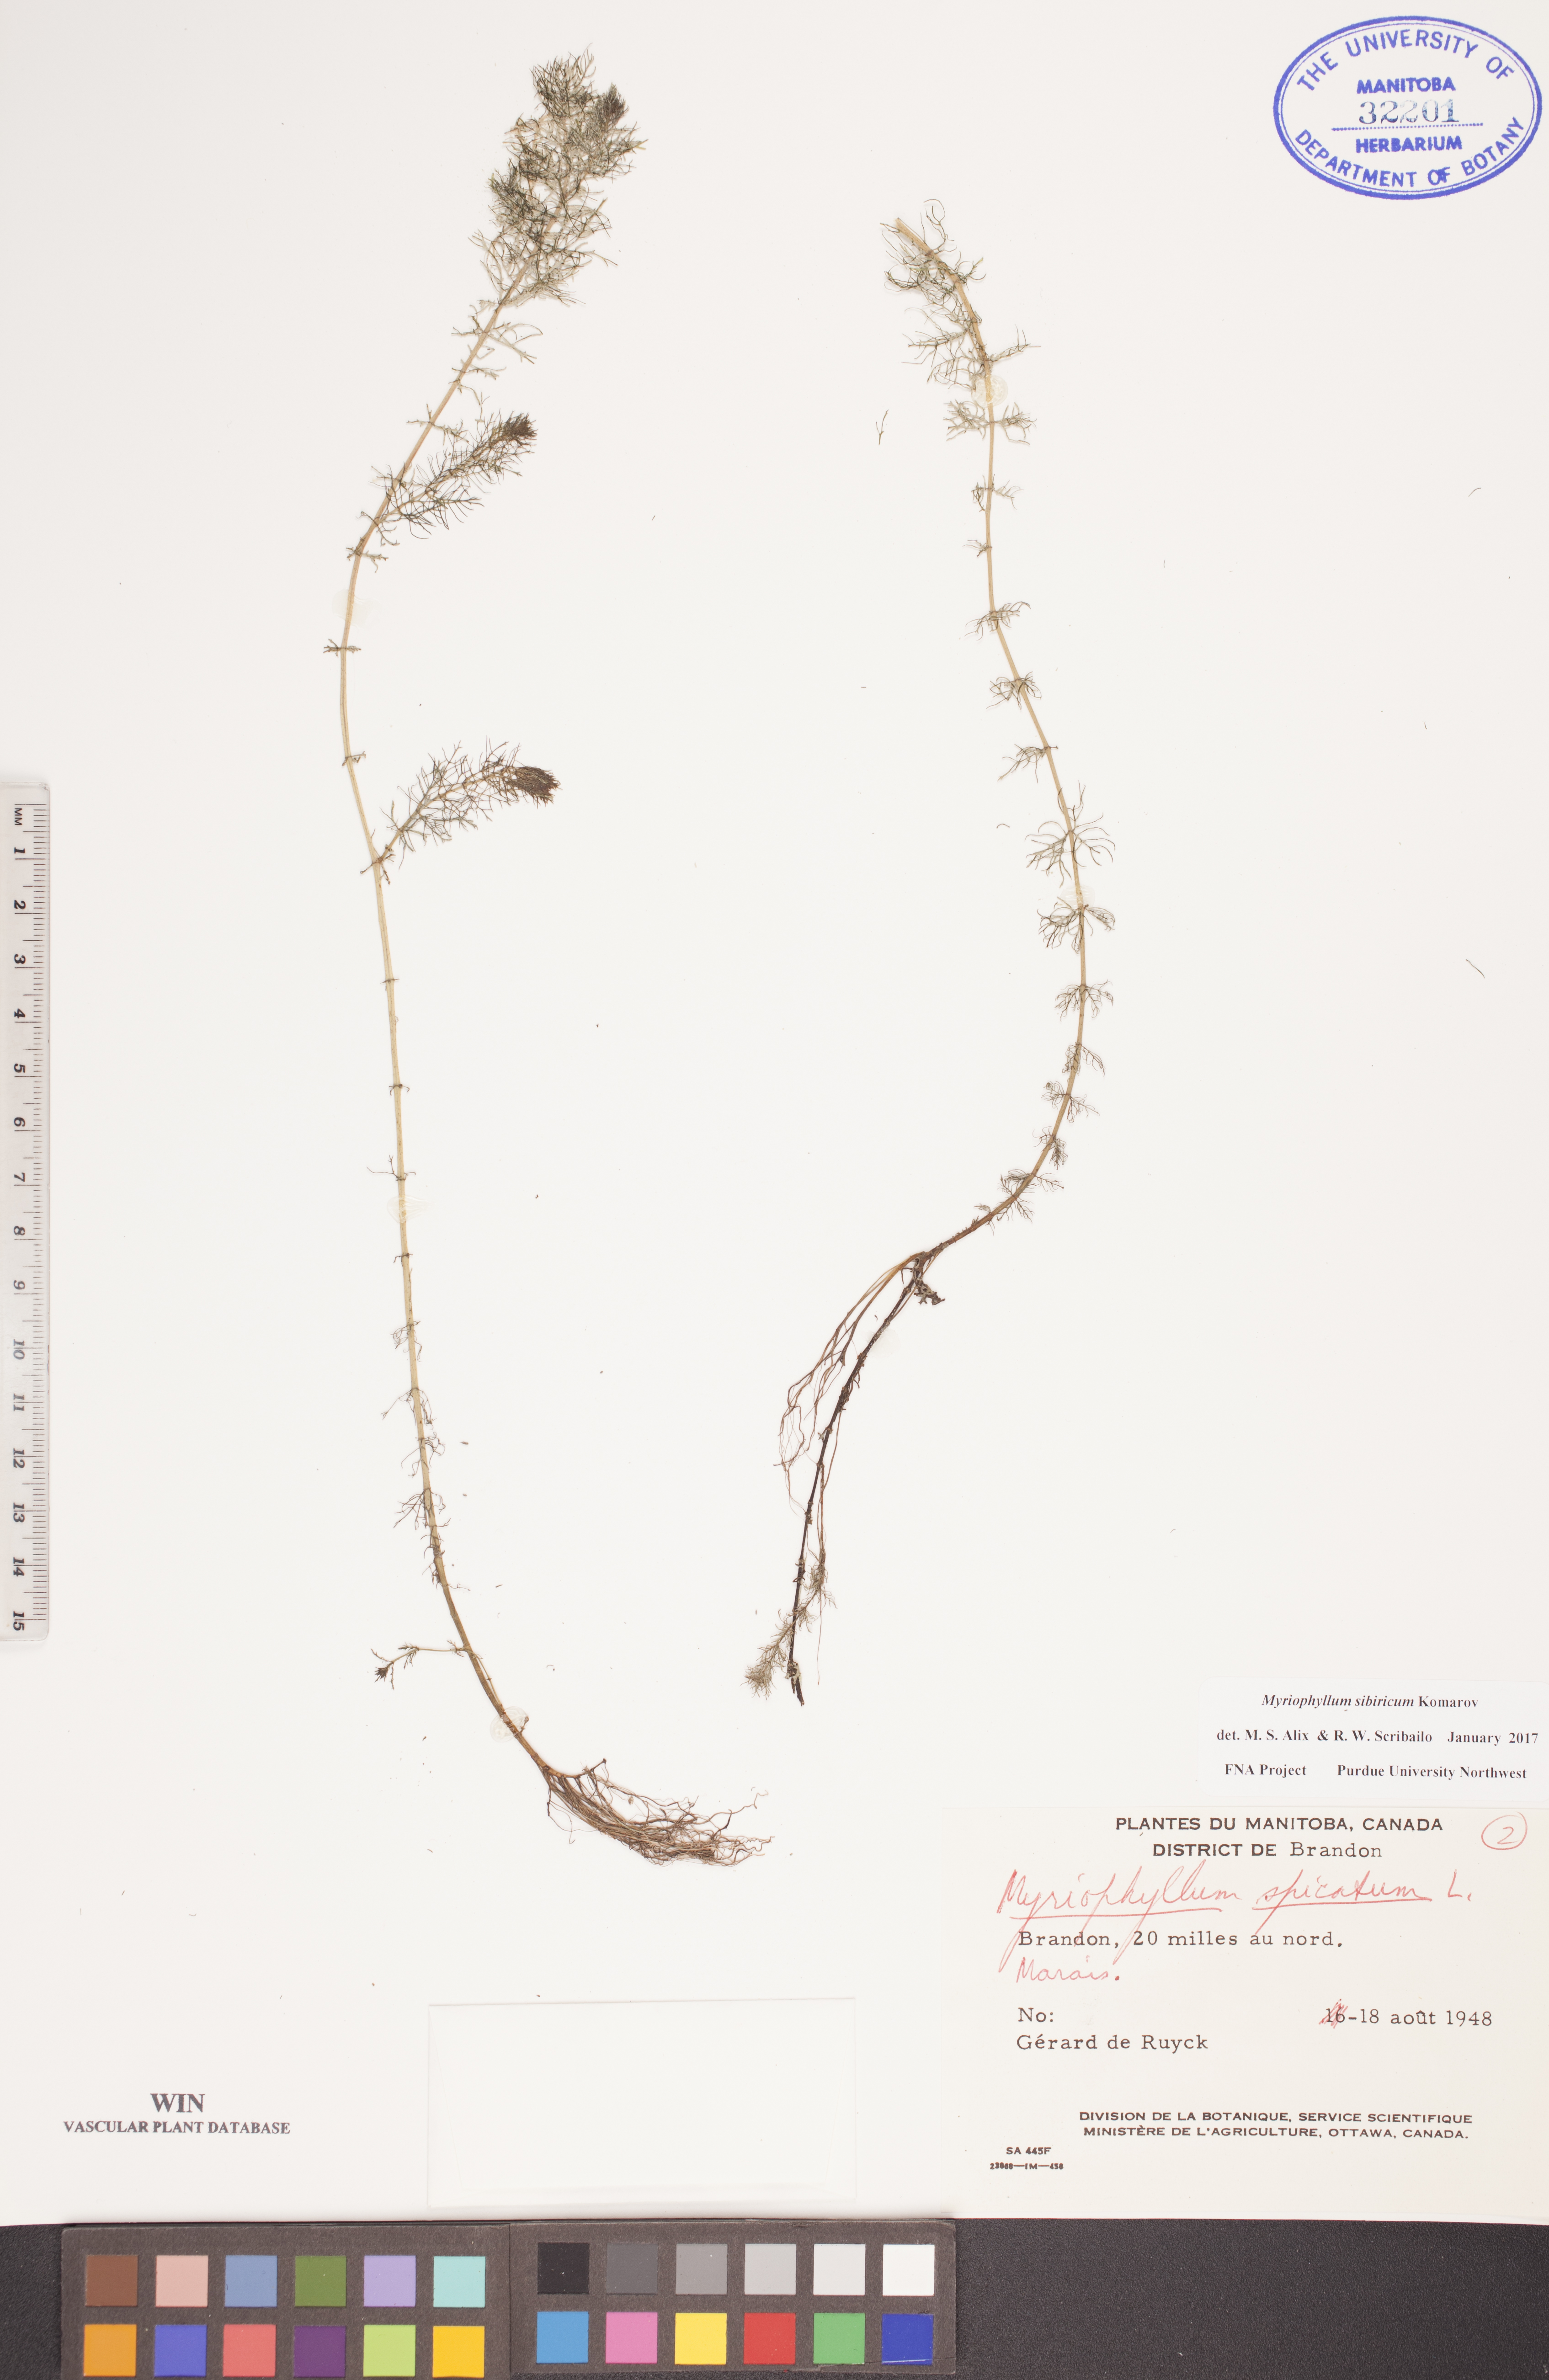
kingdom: Plantae
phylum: Tracheophyta
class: Magnoliopsida
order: Saxifragales
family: Haloragaceae
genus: Myriophyllum
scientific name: Myriophyllum sibiricum
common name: Siberian water-milfoil
